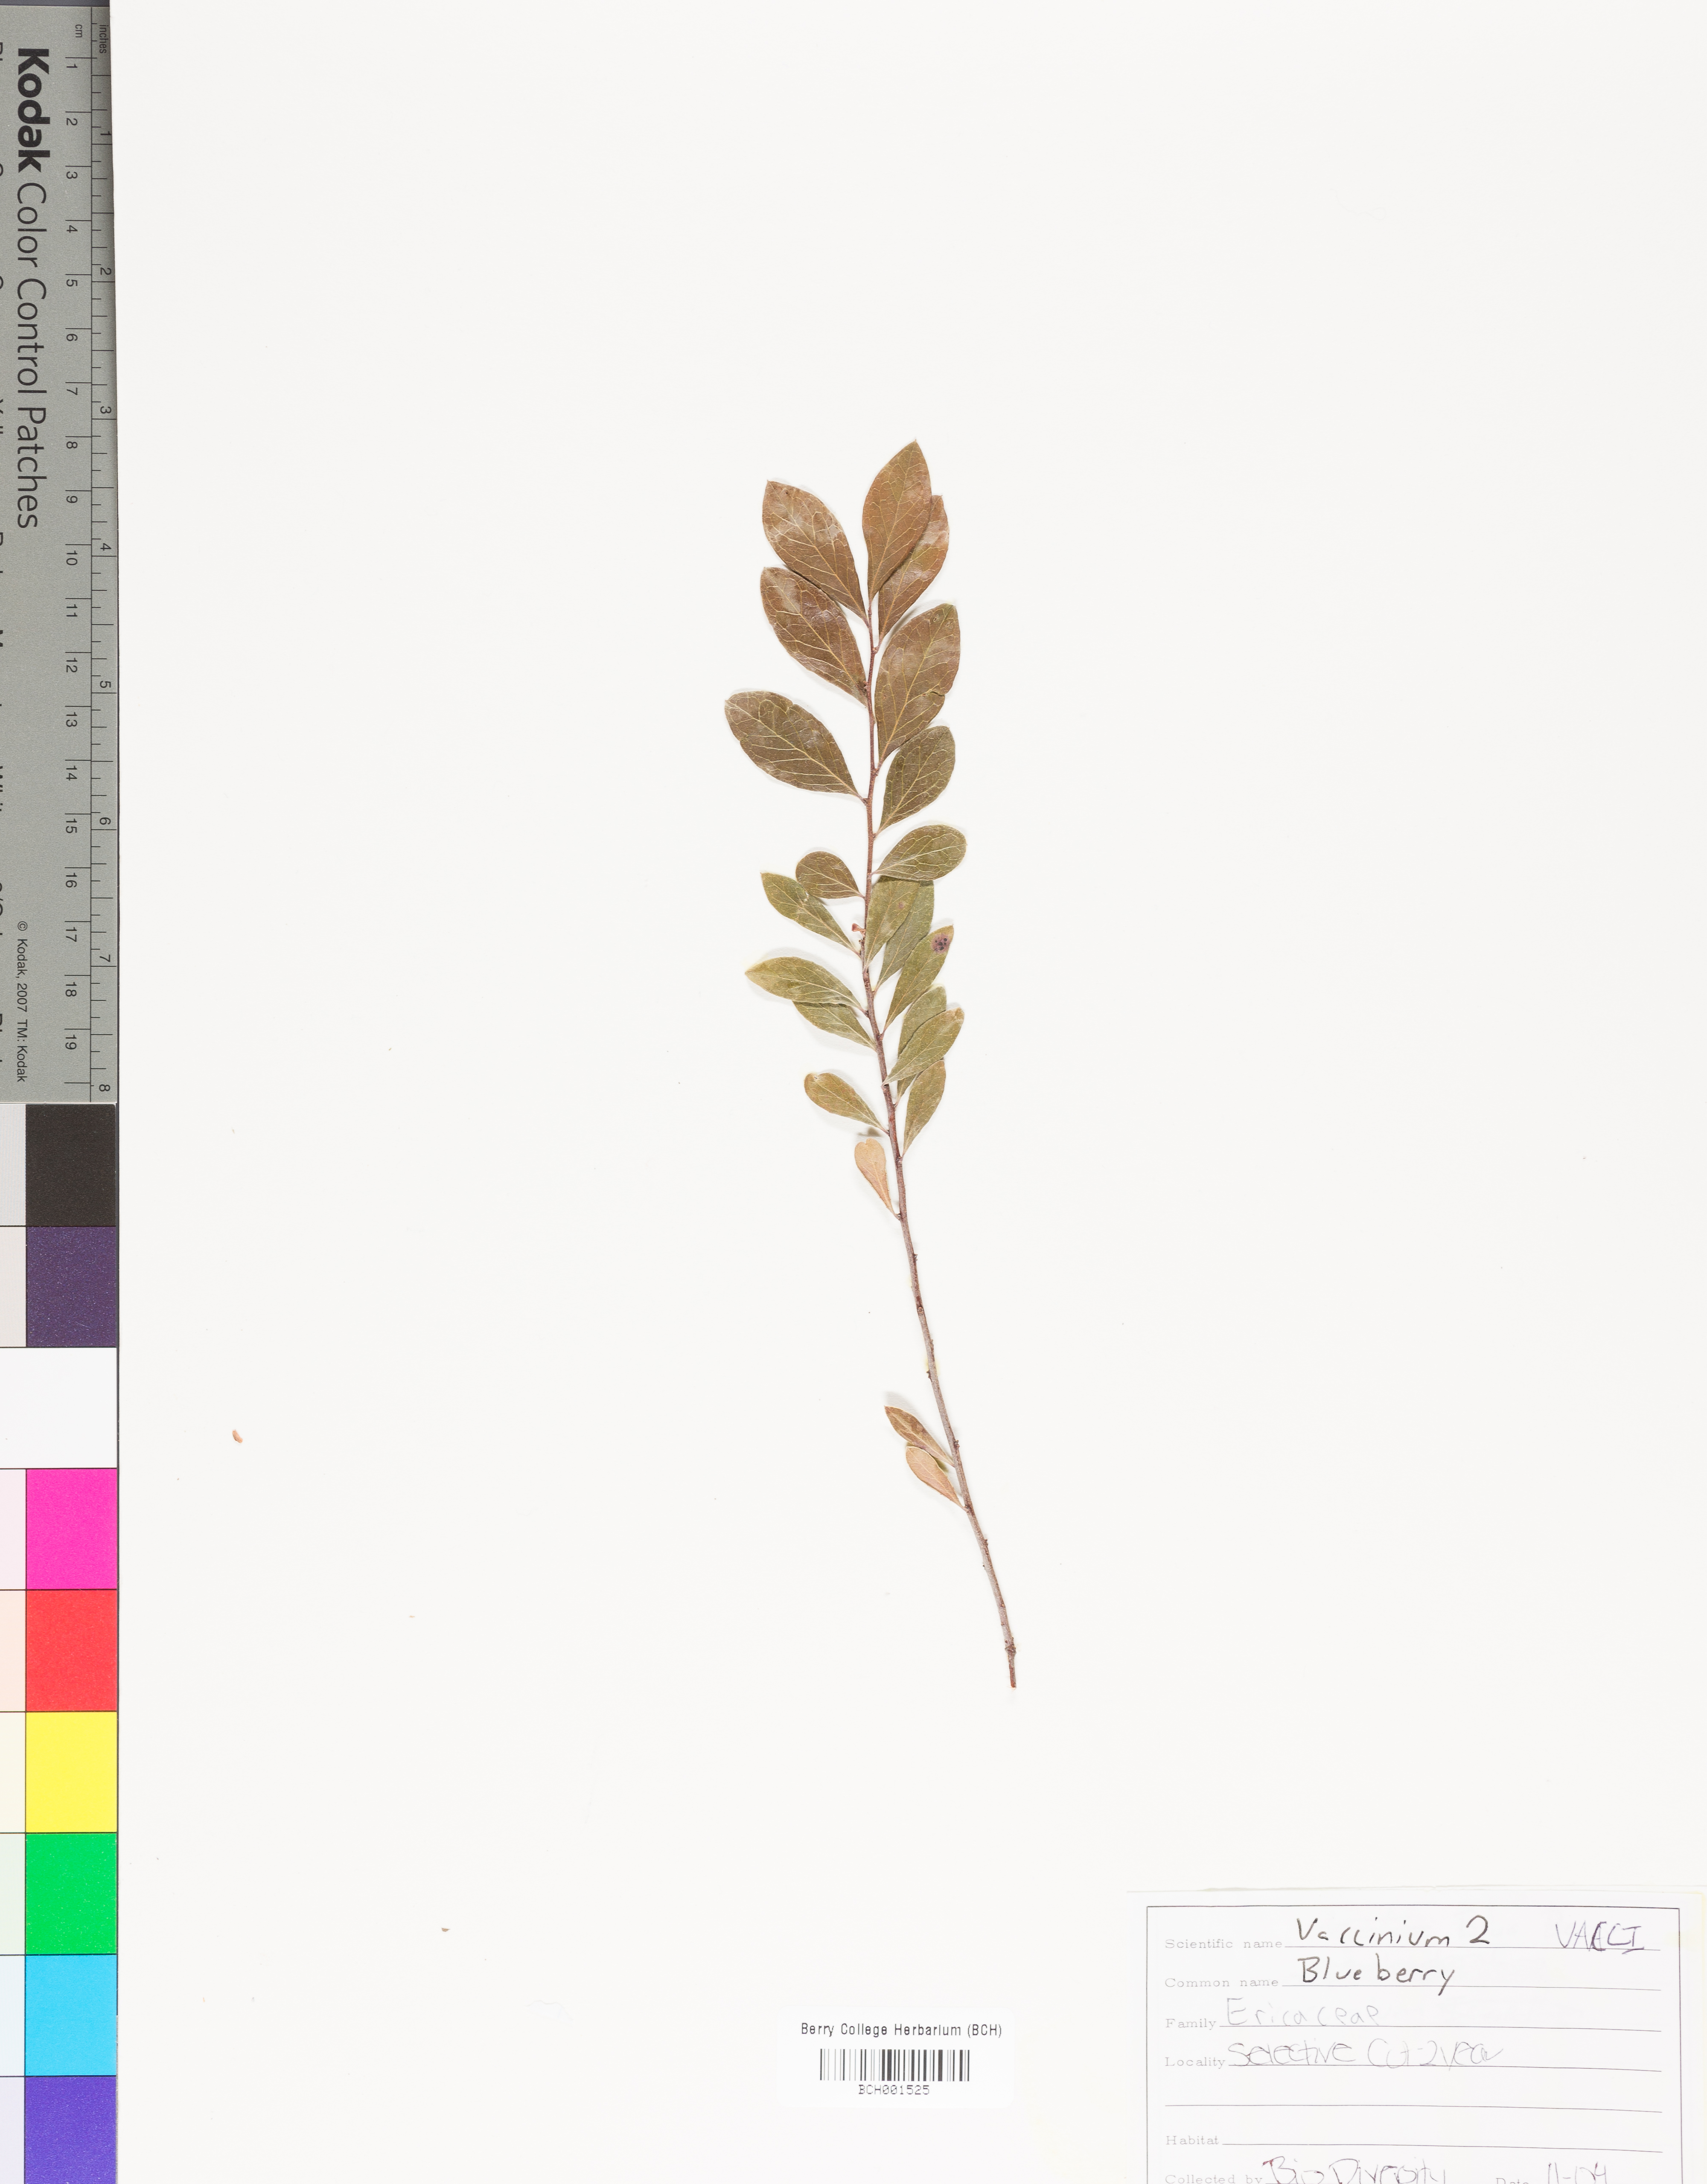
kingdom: Plantae
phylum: Tracheophyta
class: Magnoliopsida
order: Ericales
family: Ericaceae
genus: Vaccinium
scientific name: Vaccinium
